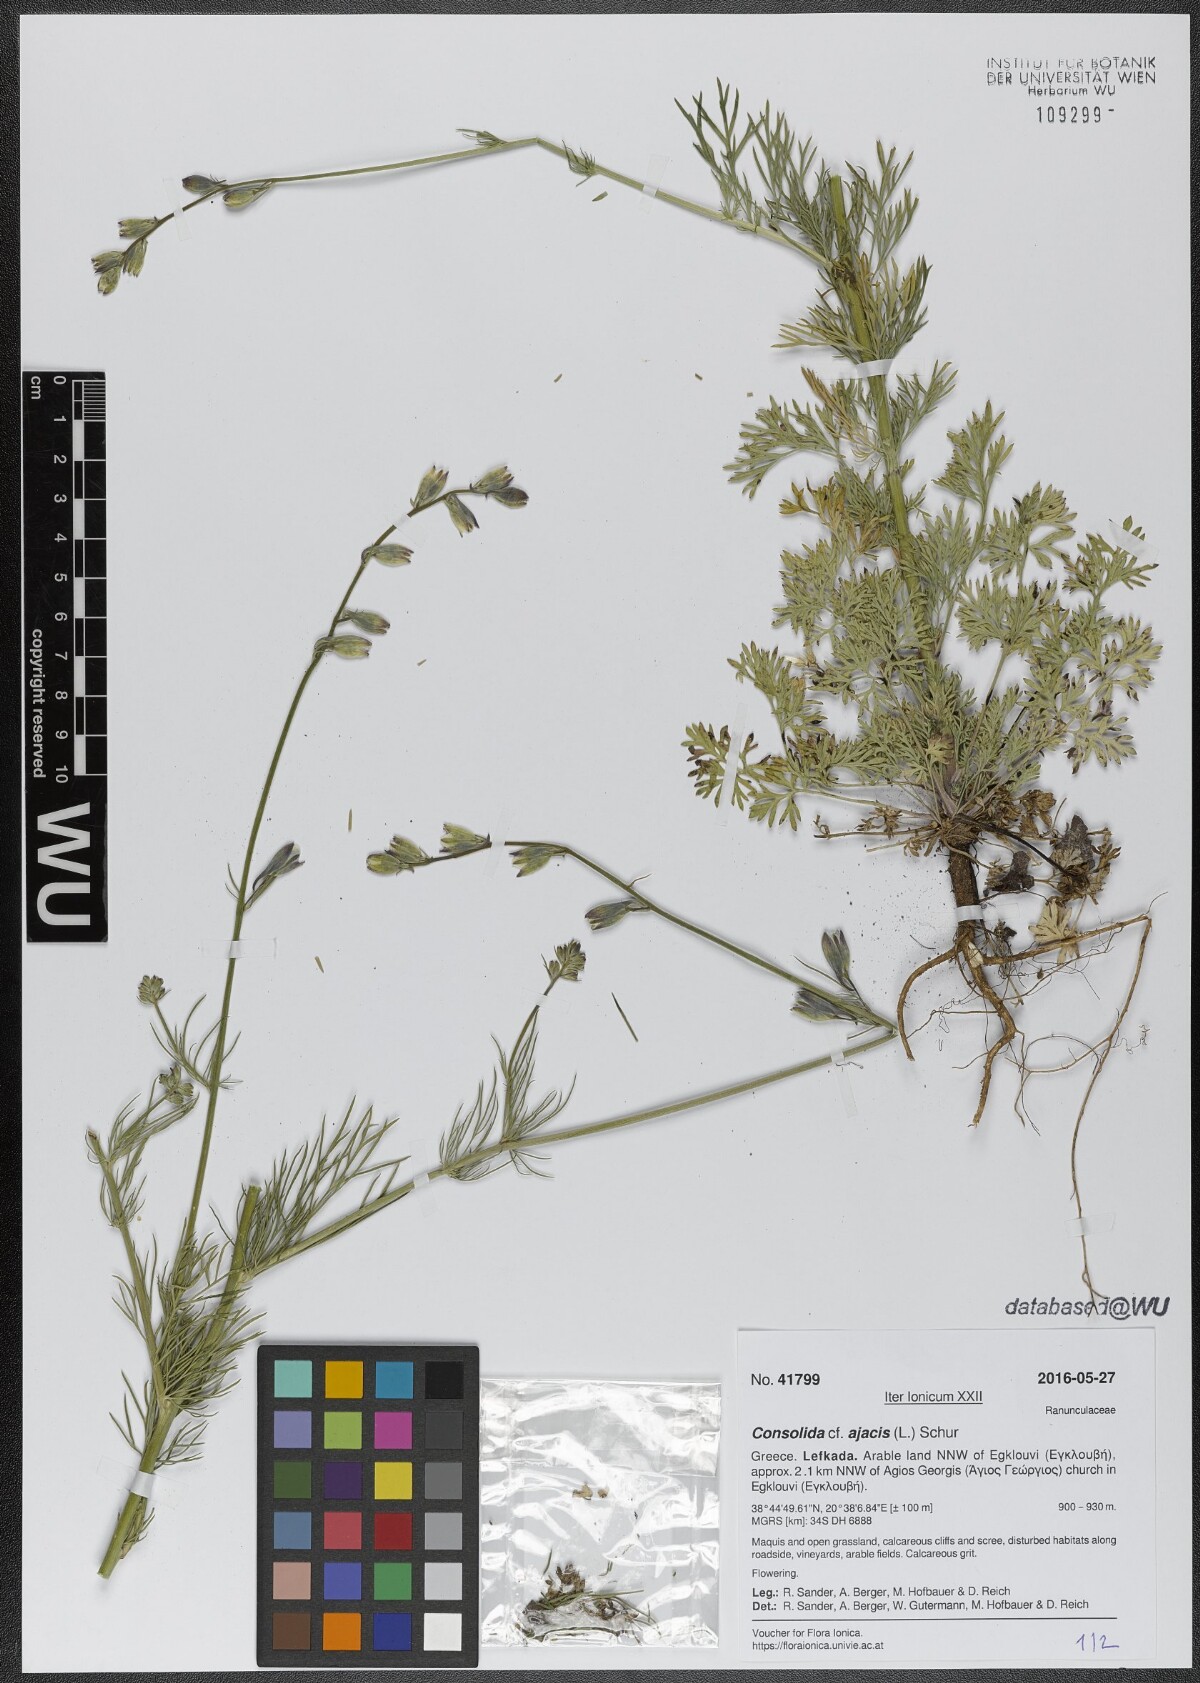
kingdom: Plantae
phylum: Tracheophyta
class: Magnoliopsida
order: Ranunculales
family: Ranunculaceae
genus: Delphinium
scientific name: Delphinium ajacis
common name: Doubtful knight's-spur
